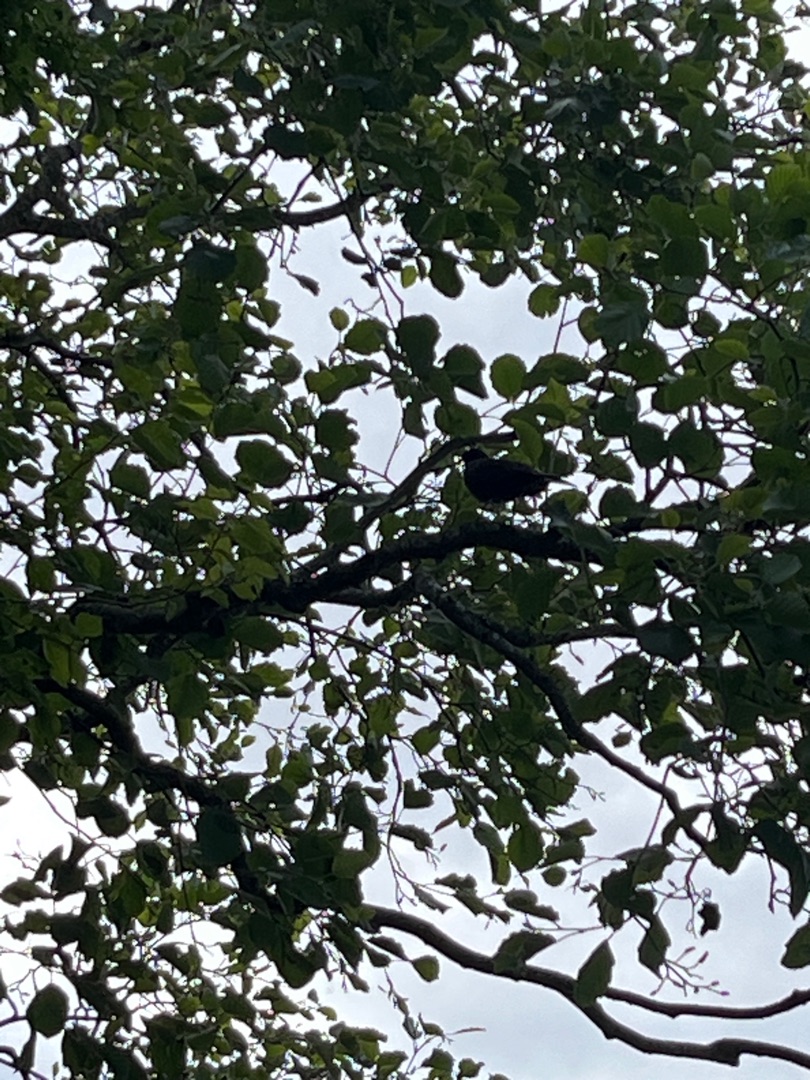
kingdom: Animalia
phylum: Chordata
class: Aves
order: Passeriformes
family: Turdidae
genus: Turdus
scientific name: Turdus merula
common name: Solsort
